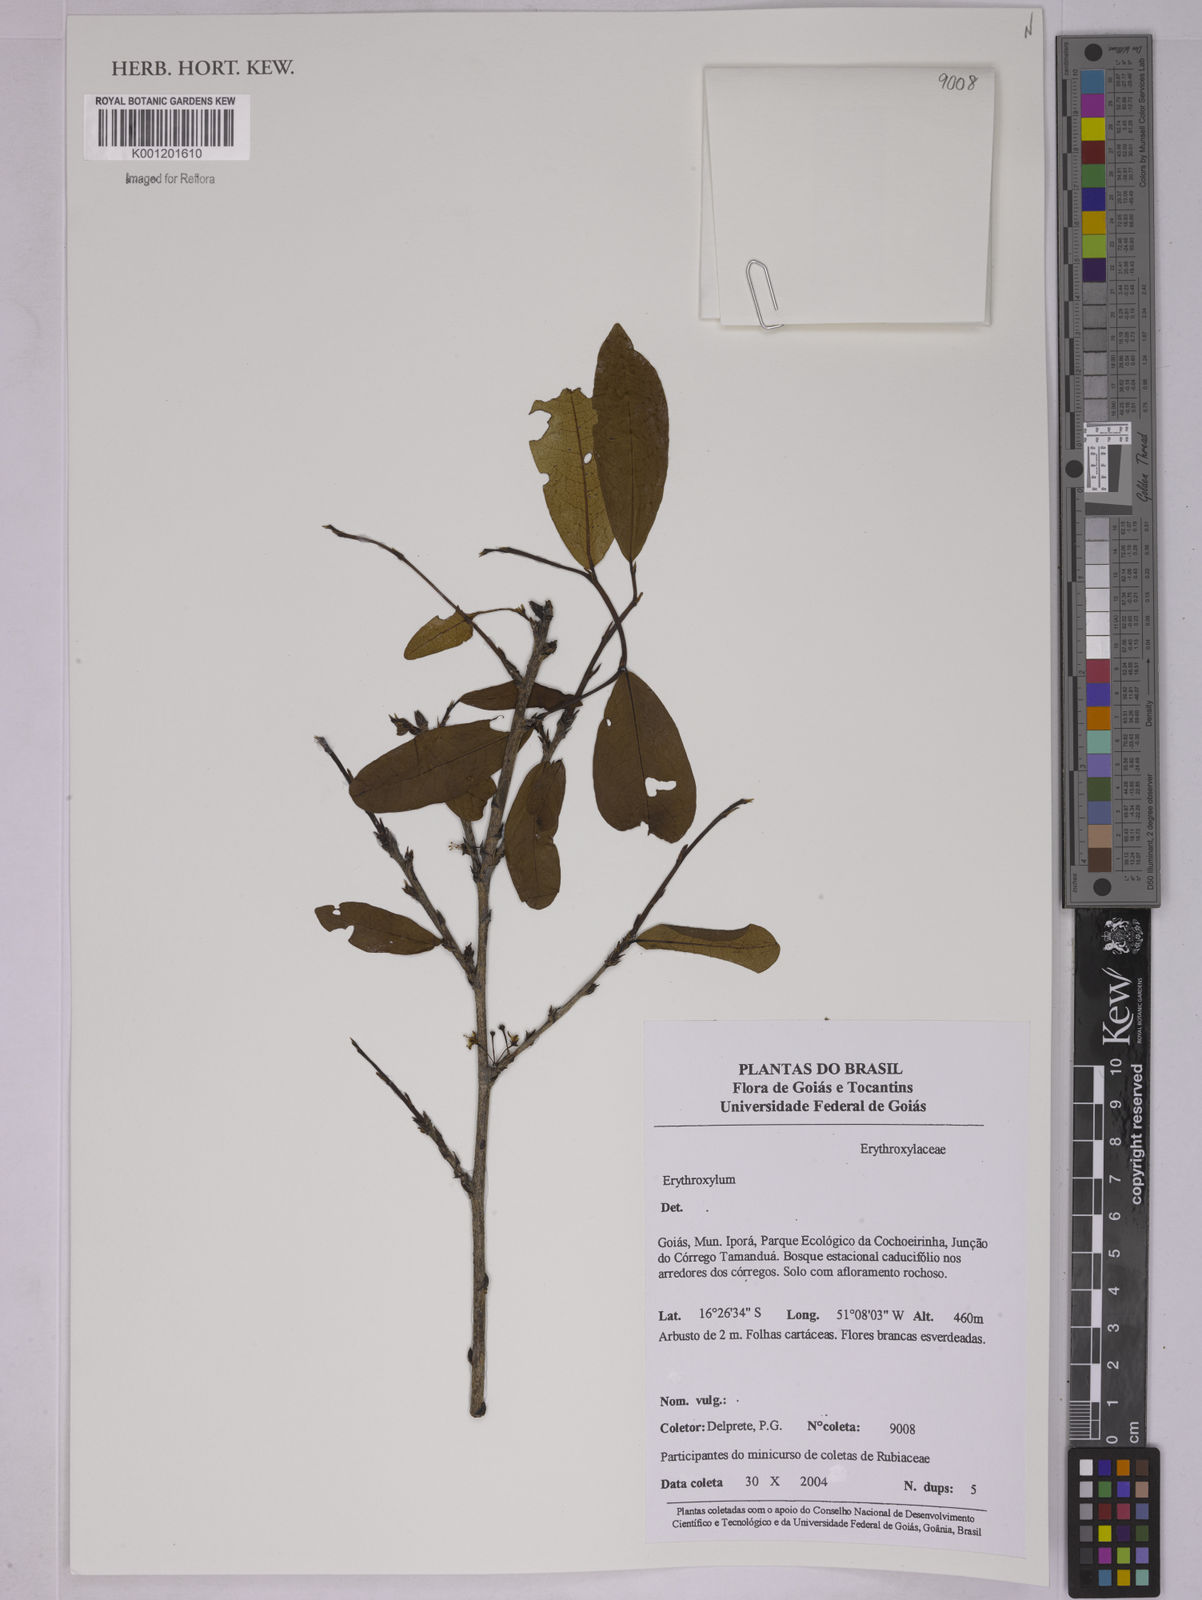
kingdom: Plantae
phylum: Tracheophyta
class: Magnoliopsida
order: Malpighiales
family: Erythroxylaceae
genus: Erythroxylum
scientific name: Erythroxylum
